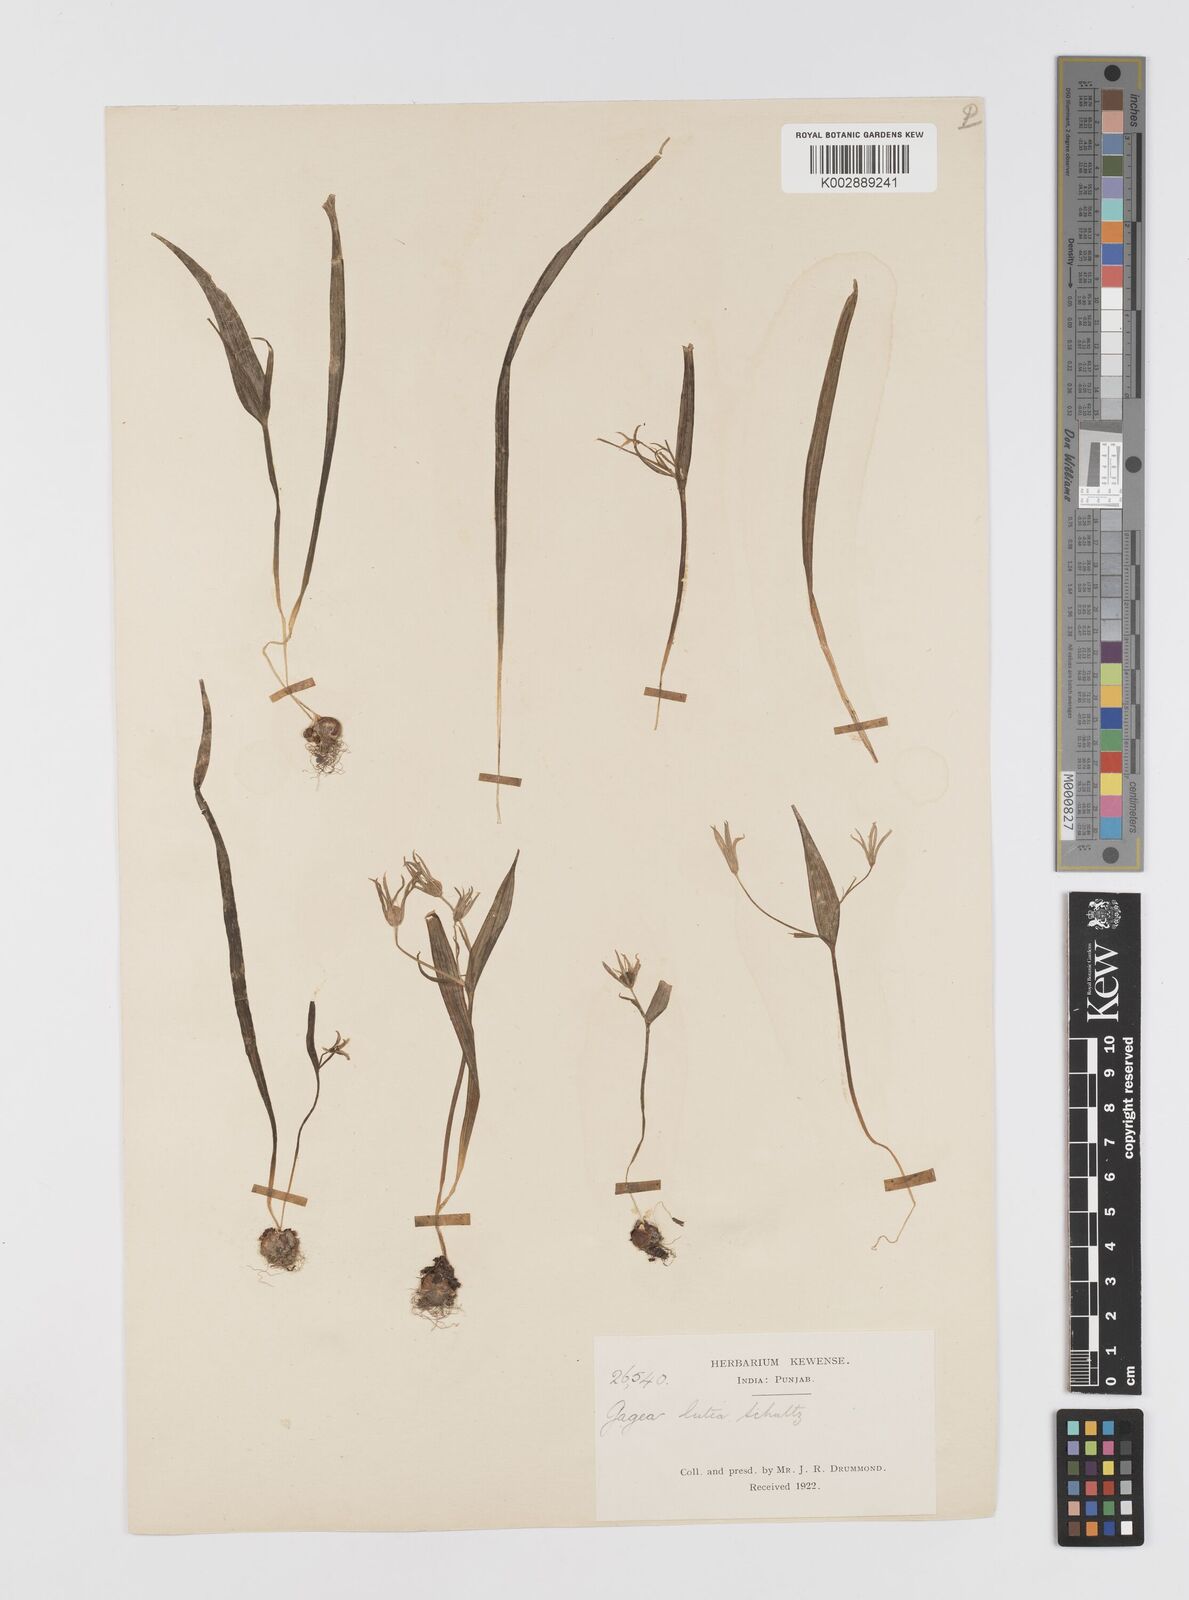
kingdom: Plantae
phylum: Tracheophyta
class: Liliopsida
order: Liliales
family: Liliaceae
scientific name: Liliaceae
